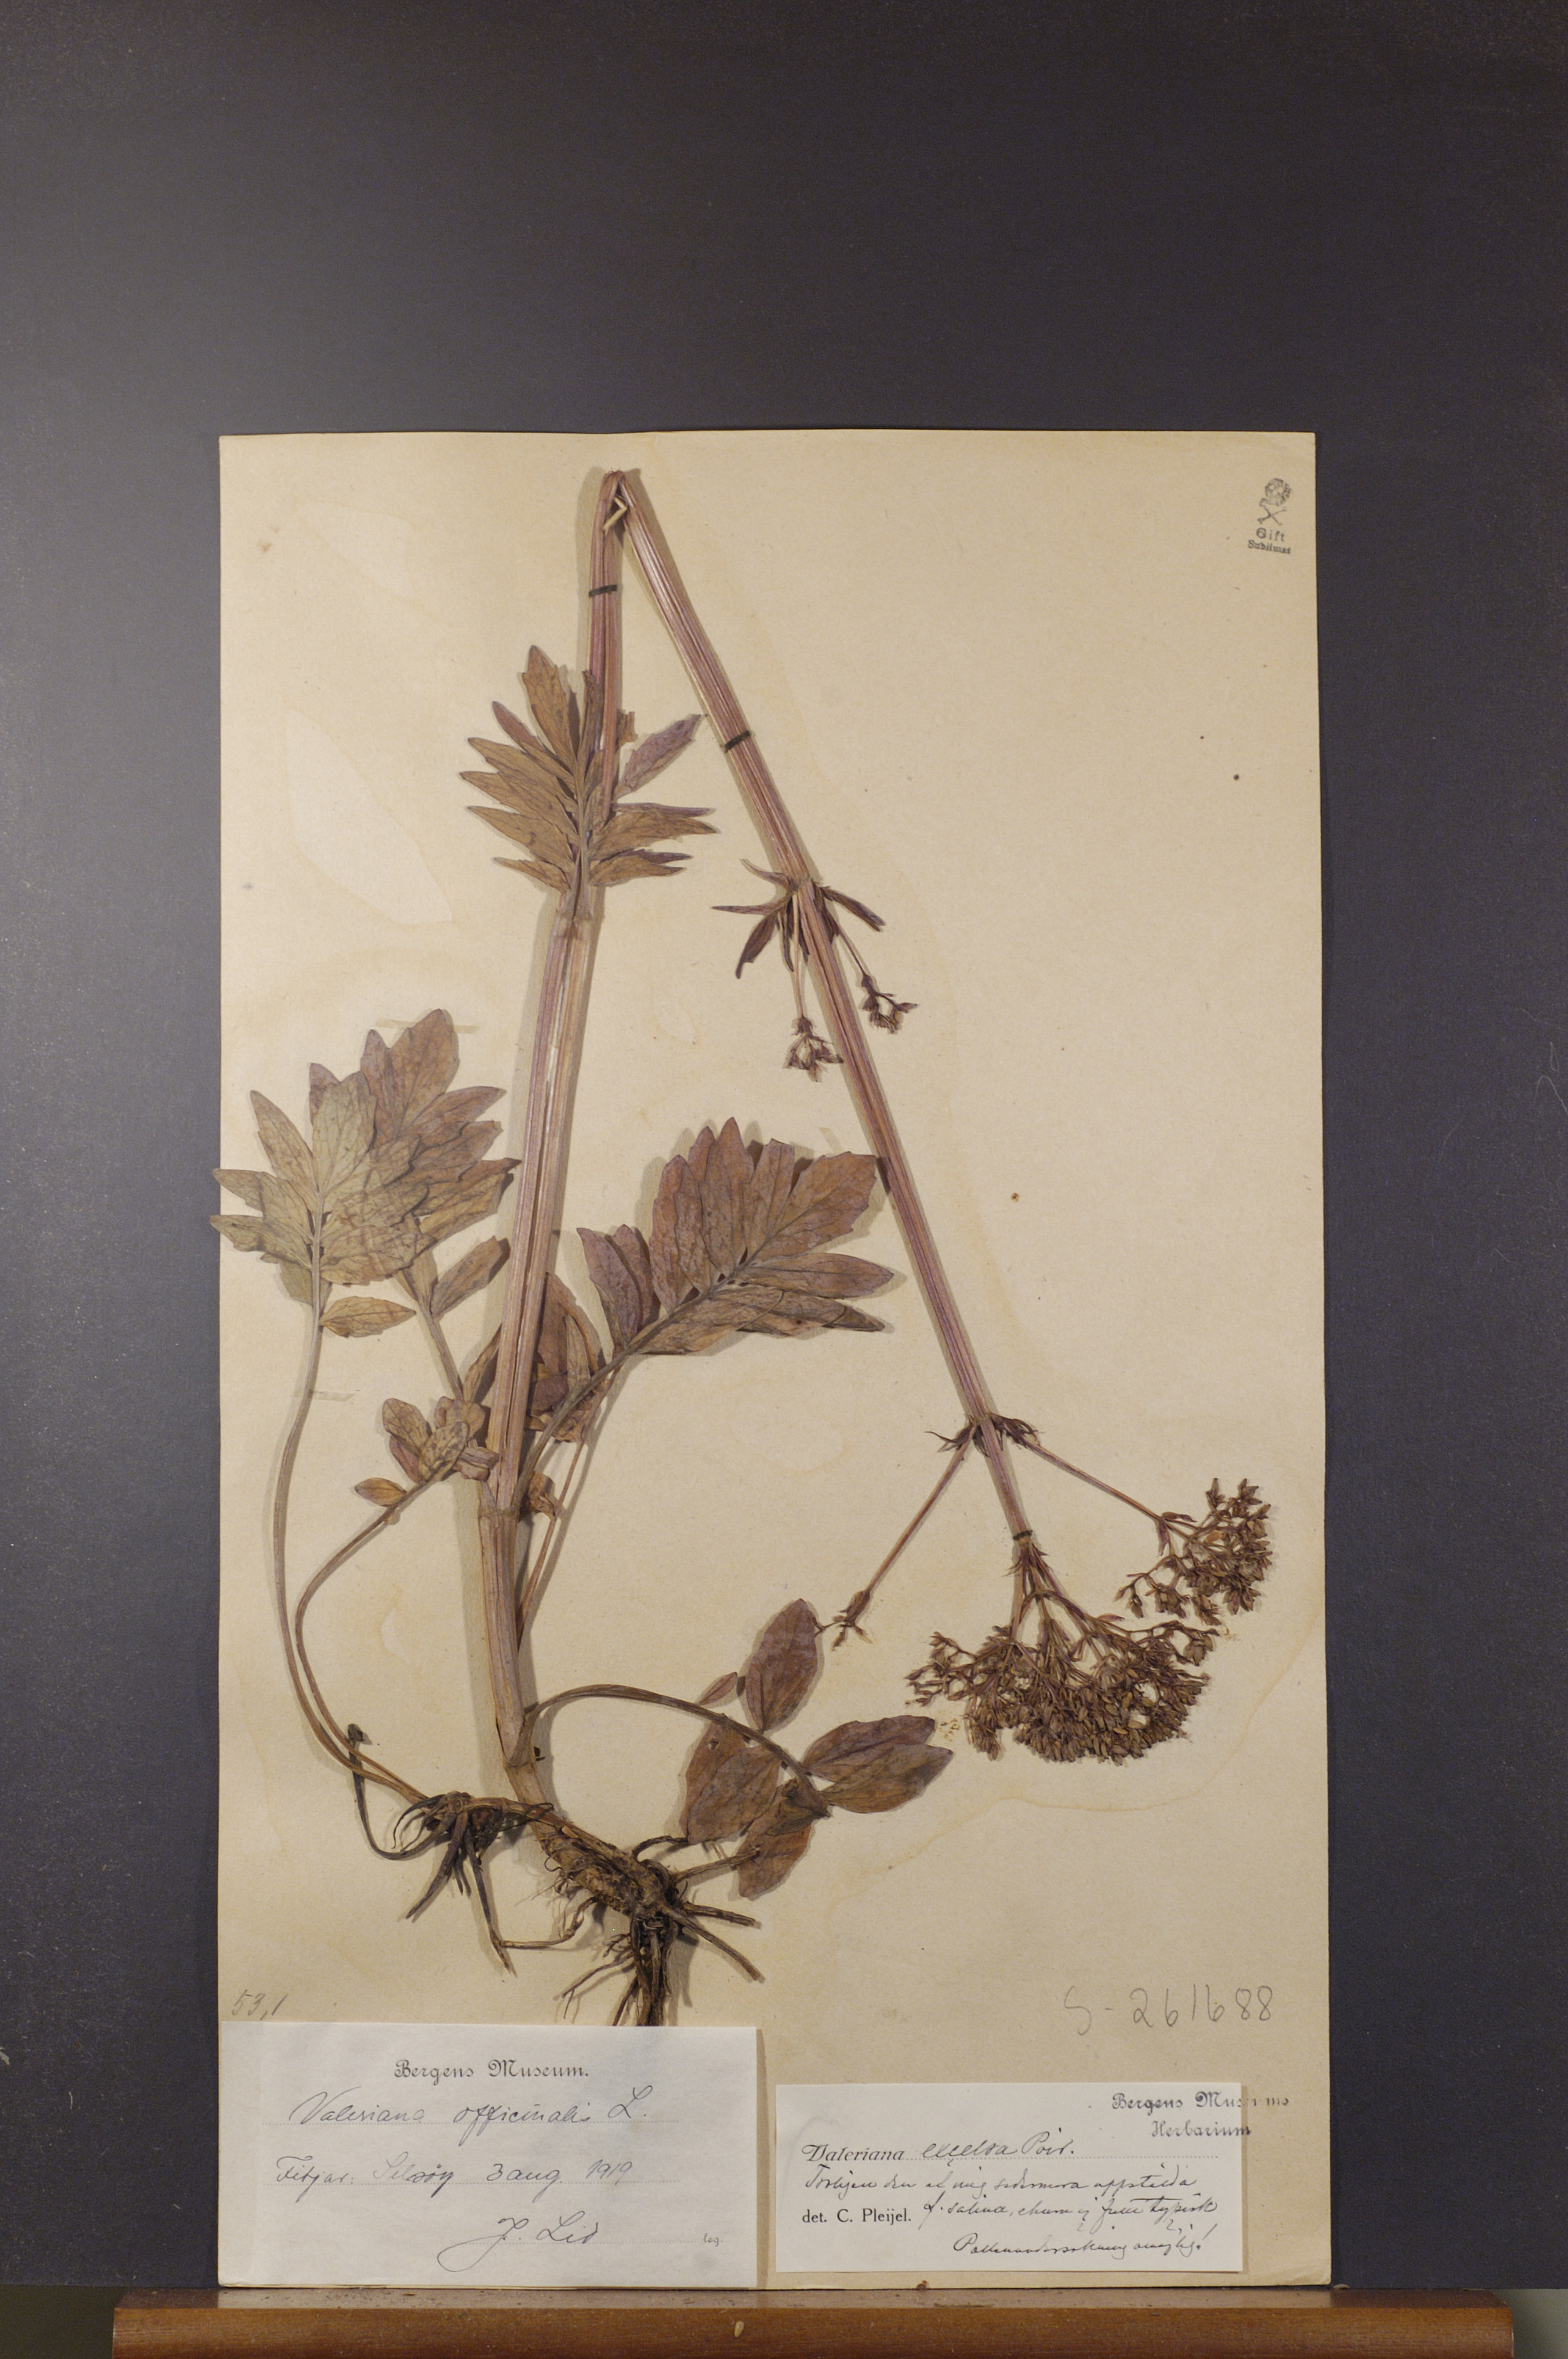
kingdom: Plantae
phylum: Tracheophyta
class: Magnoliopsida
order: Dipsacales
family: Caprifoliaceae
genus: Valeriana
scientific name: Valeriana sambucifolia
